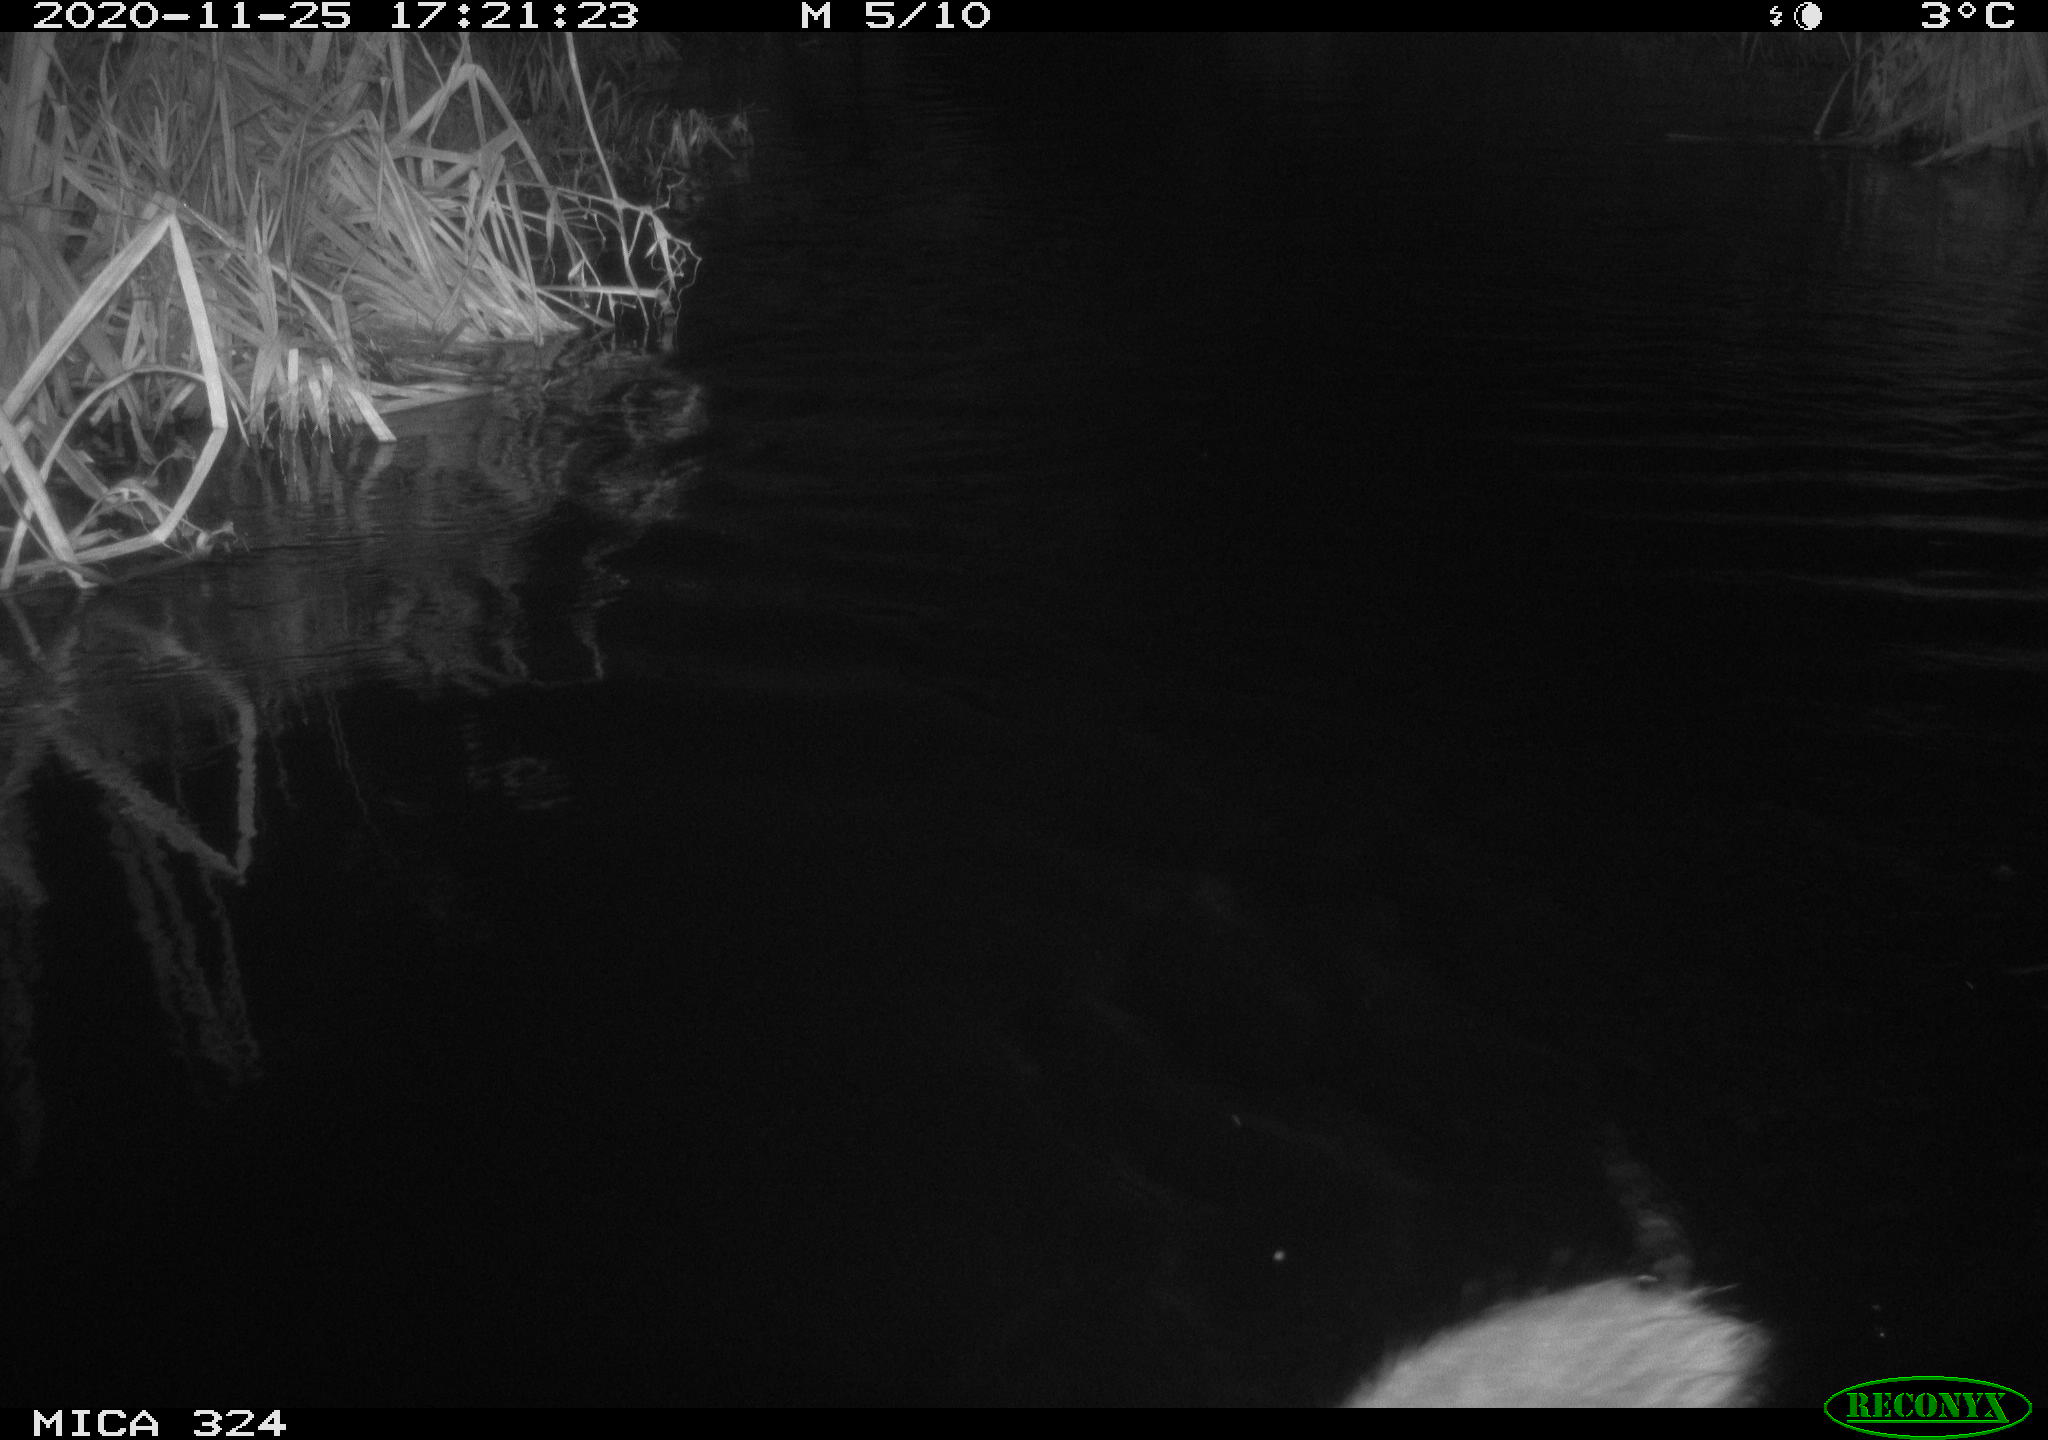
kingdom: Animalia
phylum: Chordata
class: Mammalia
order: Rodentia
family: Myocastoridae
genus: Myocastor
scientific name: Myocastor coypus
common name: Coypu
